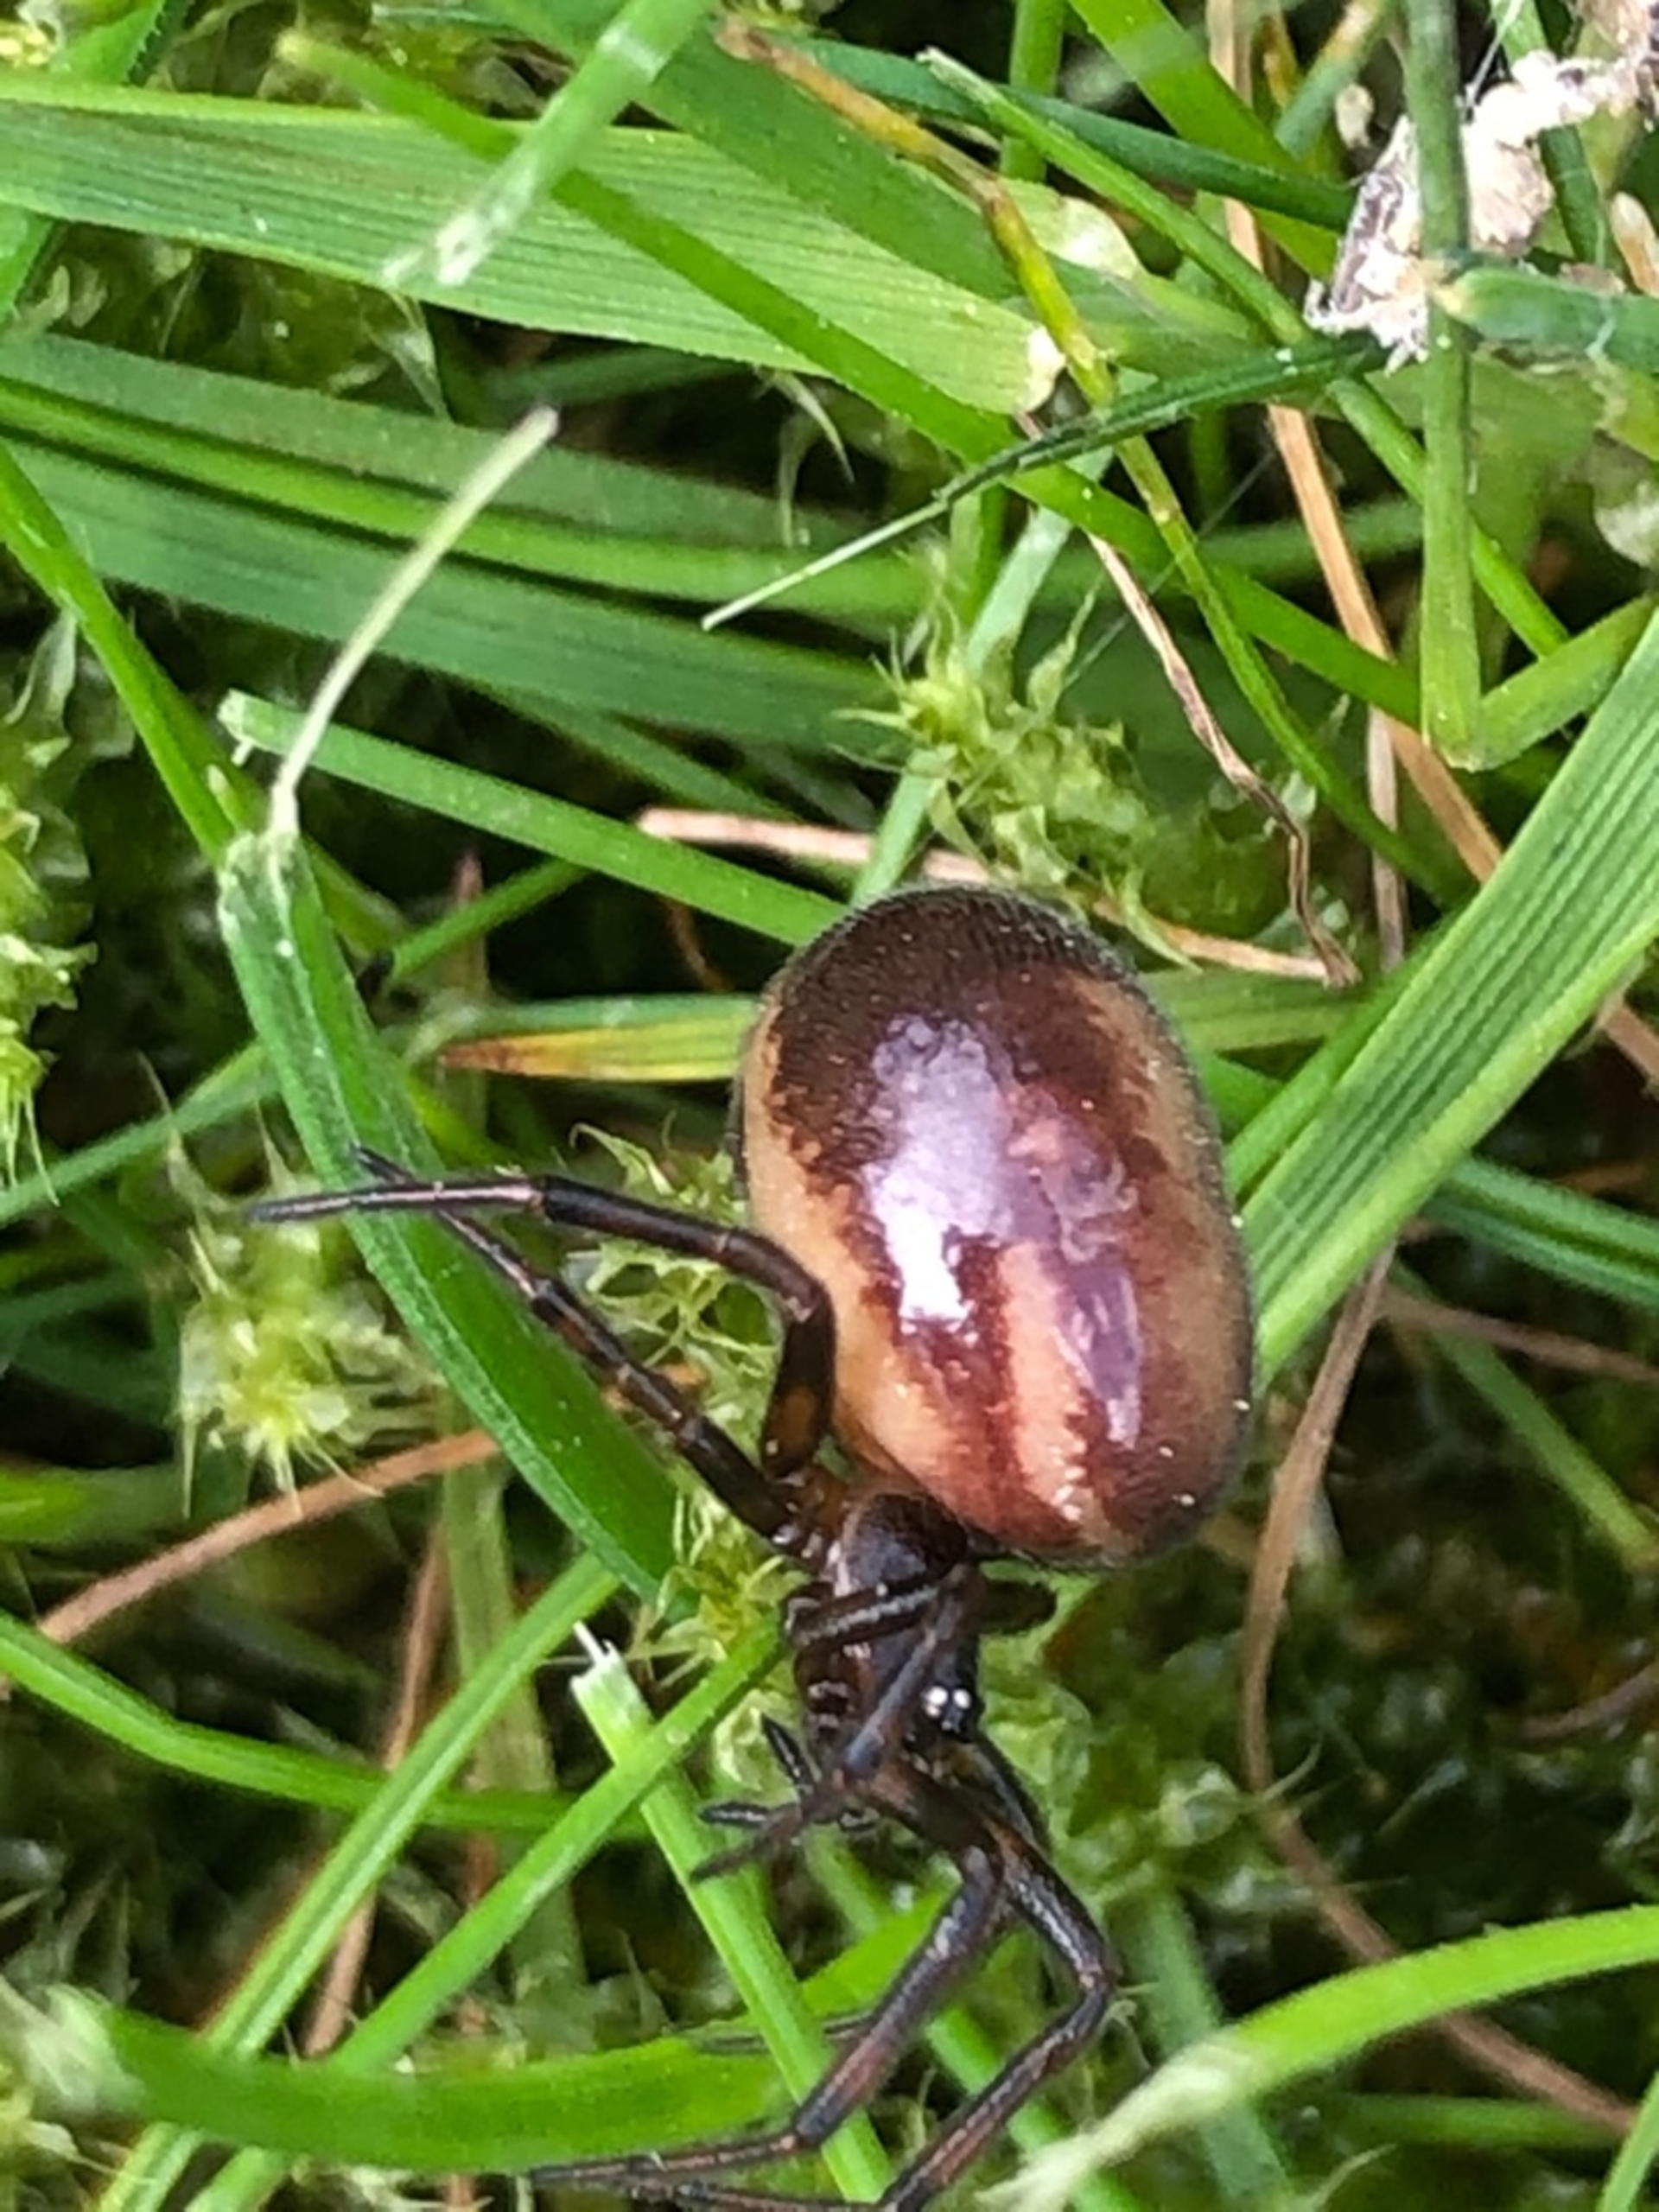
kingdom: Animalia
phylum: Arthropoda
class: Arachnida
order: Araneae
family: Theridiidae
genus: Steatoda
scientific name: Steatoda bipunctata
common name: Fedtedderkop
